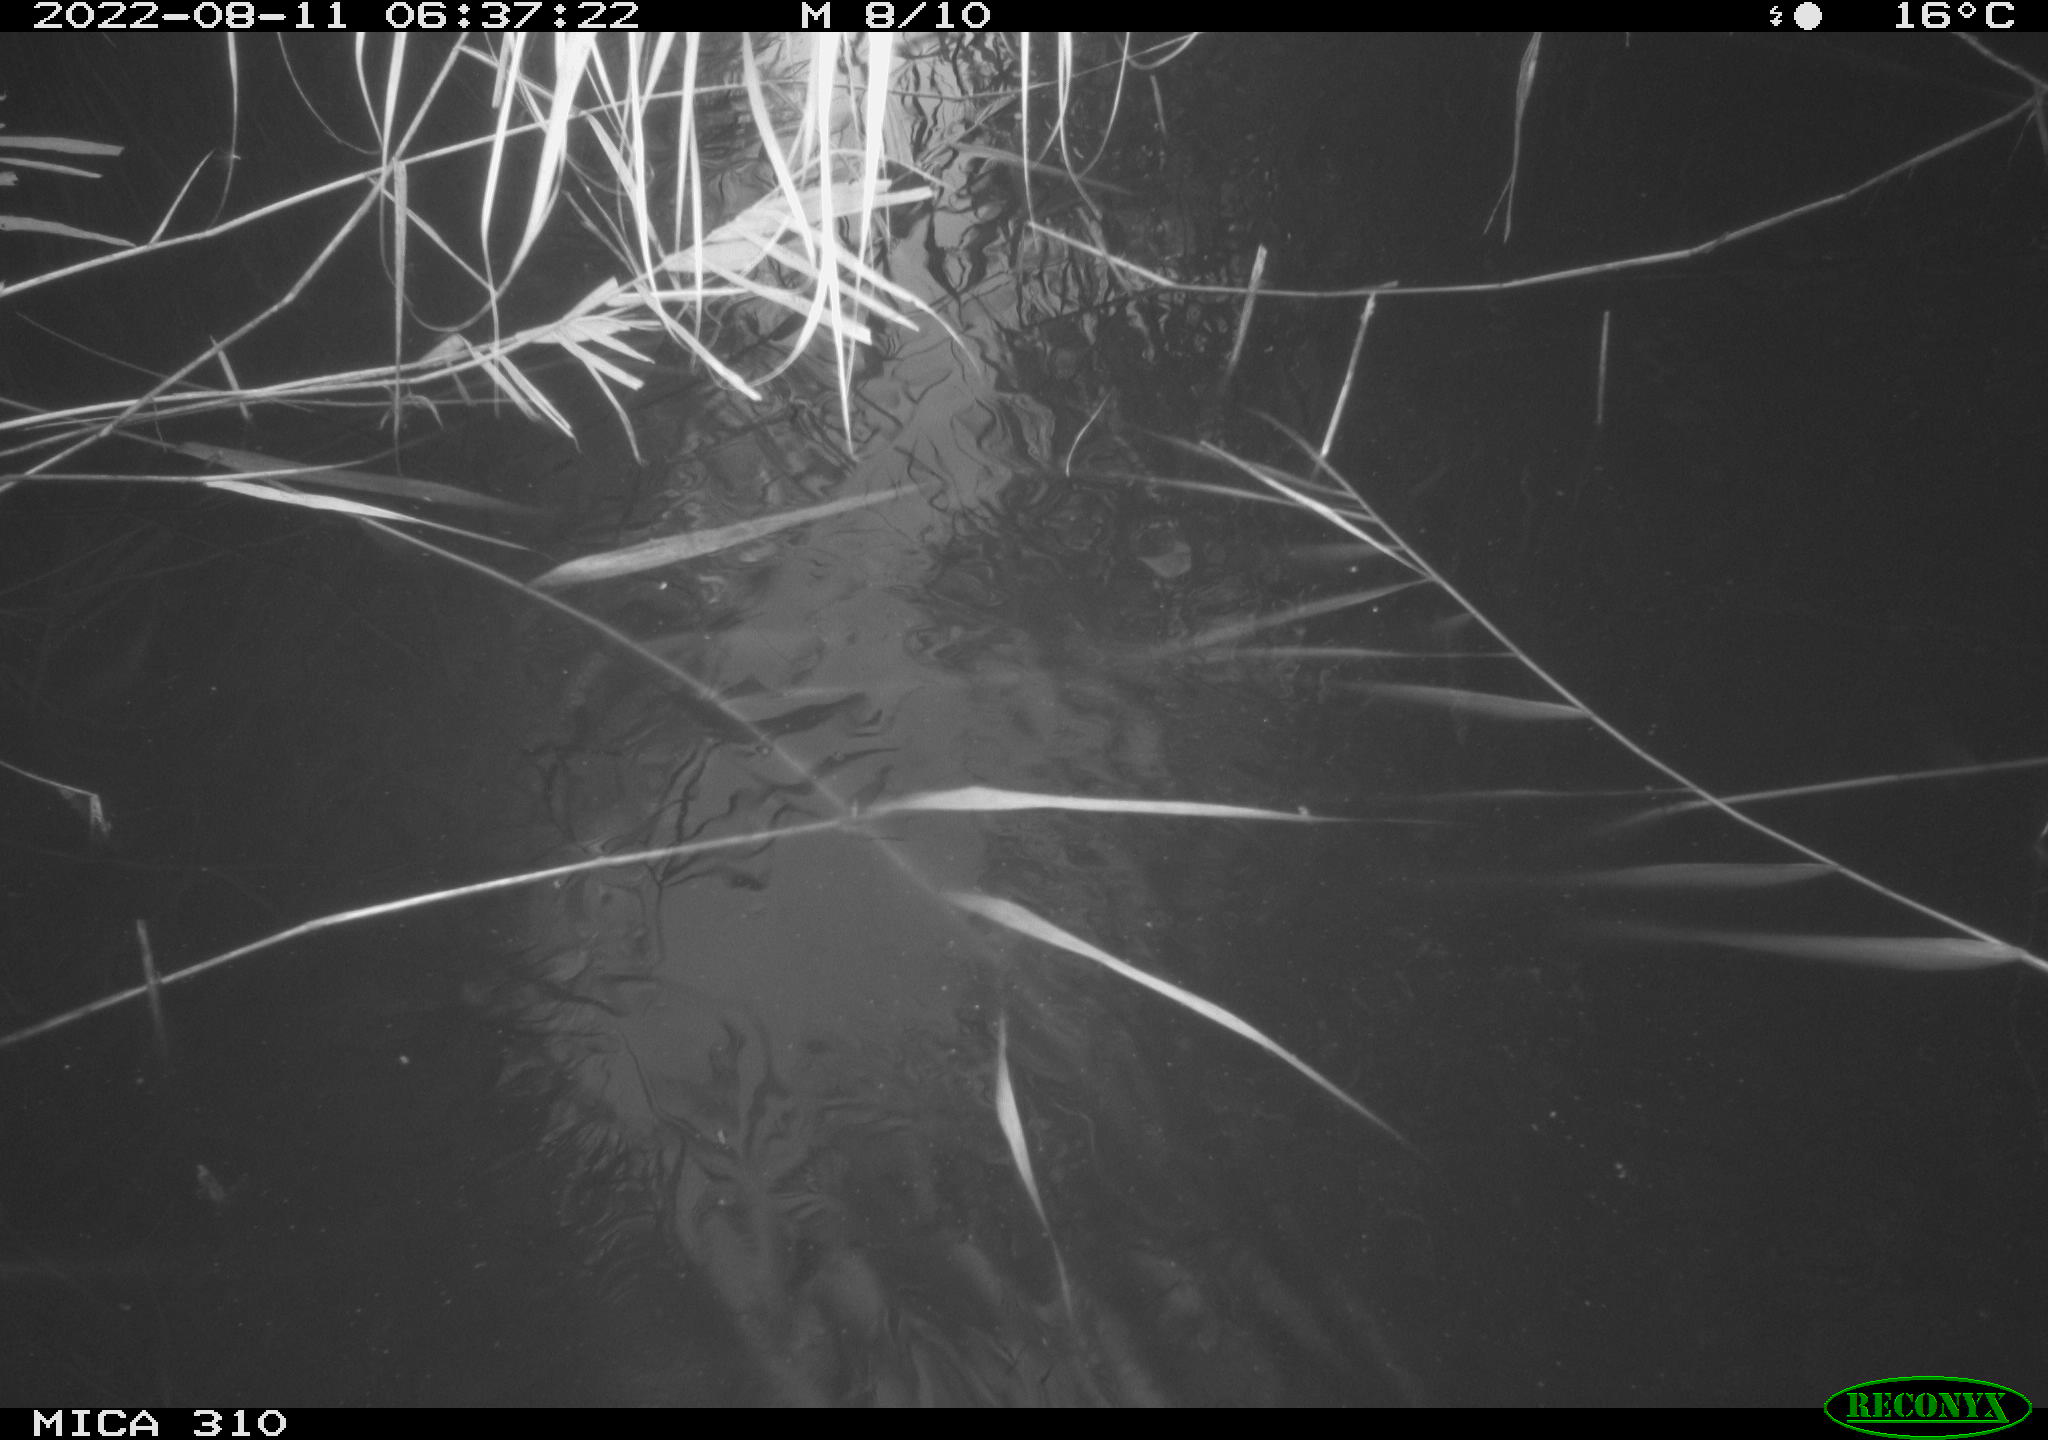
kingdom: Animalia
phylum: Chordata
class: Aves
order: Anseriformes
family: Anatidae
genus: Anas
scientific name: Anas platyrhynchos
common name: Mallard
